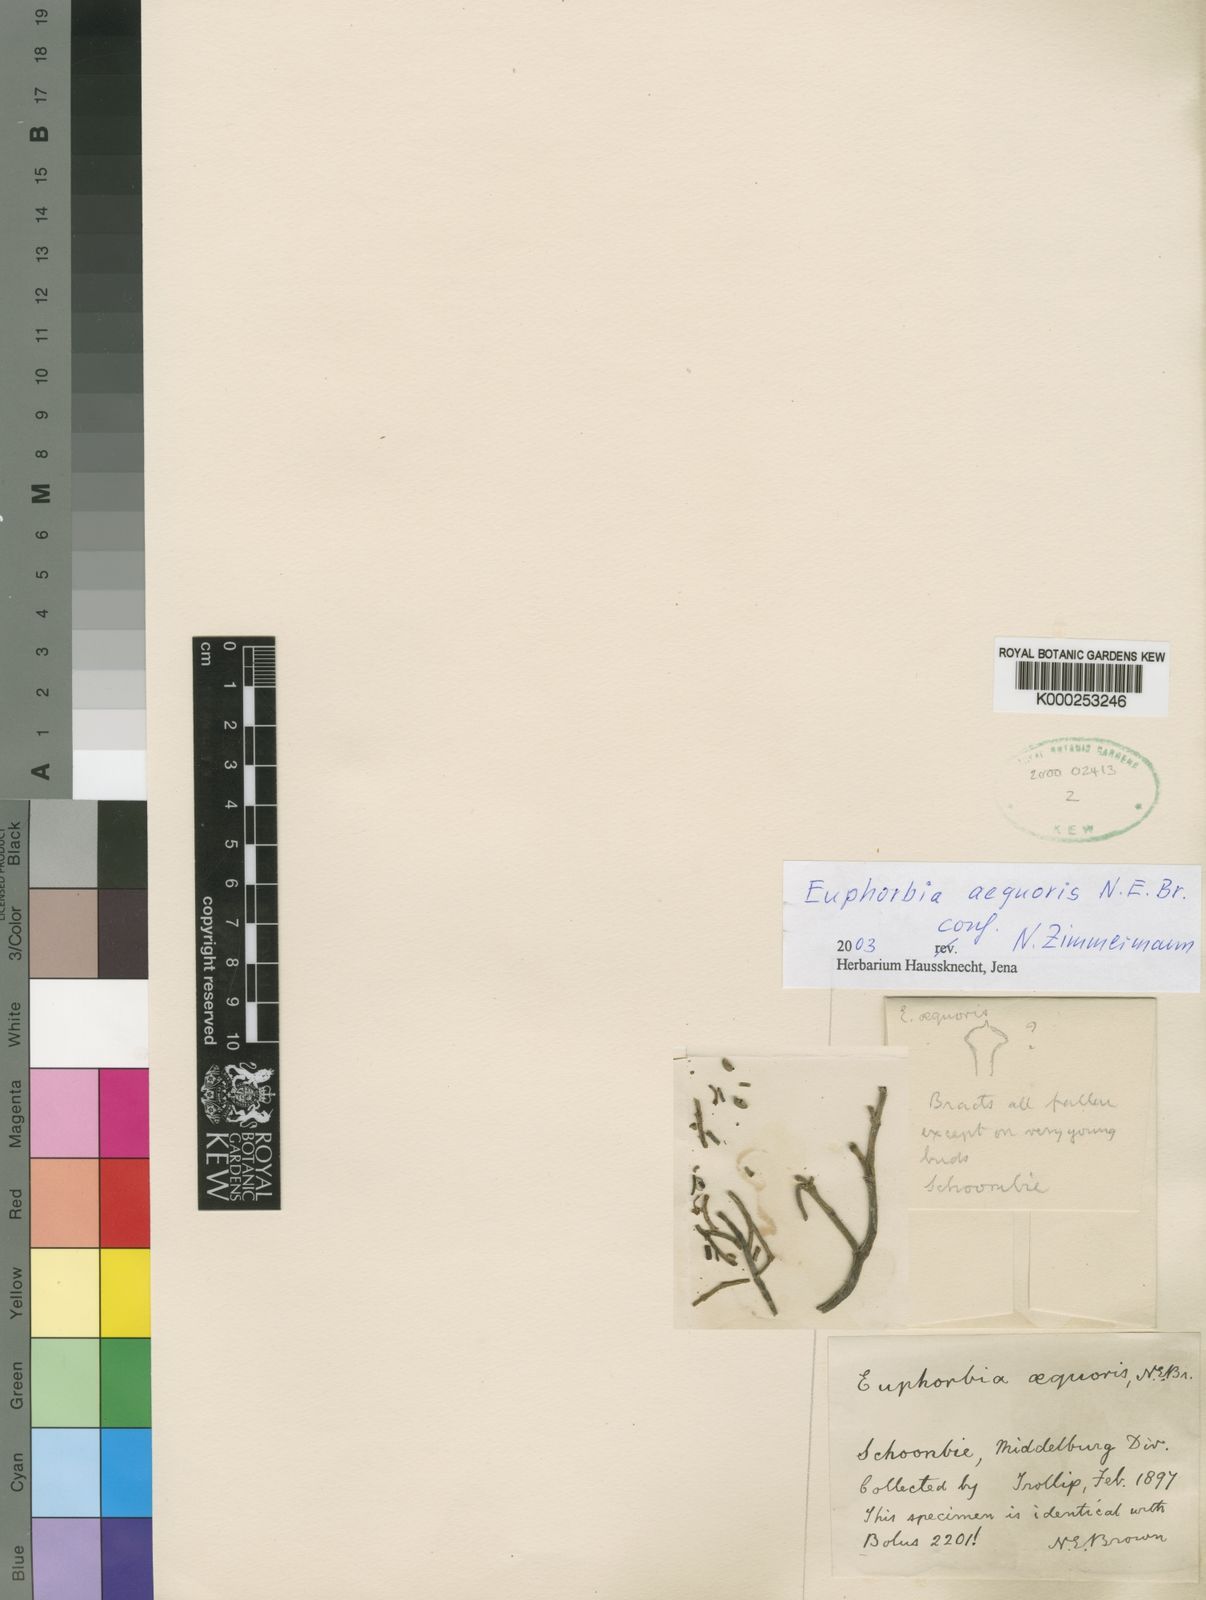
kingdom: Plantae
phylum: Tracheophyta
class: Magnoliopsida
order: Malpighiales
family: Euphorbiaceae
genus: Euphorbia
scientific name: Euphorbia juttae
